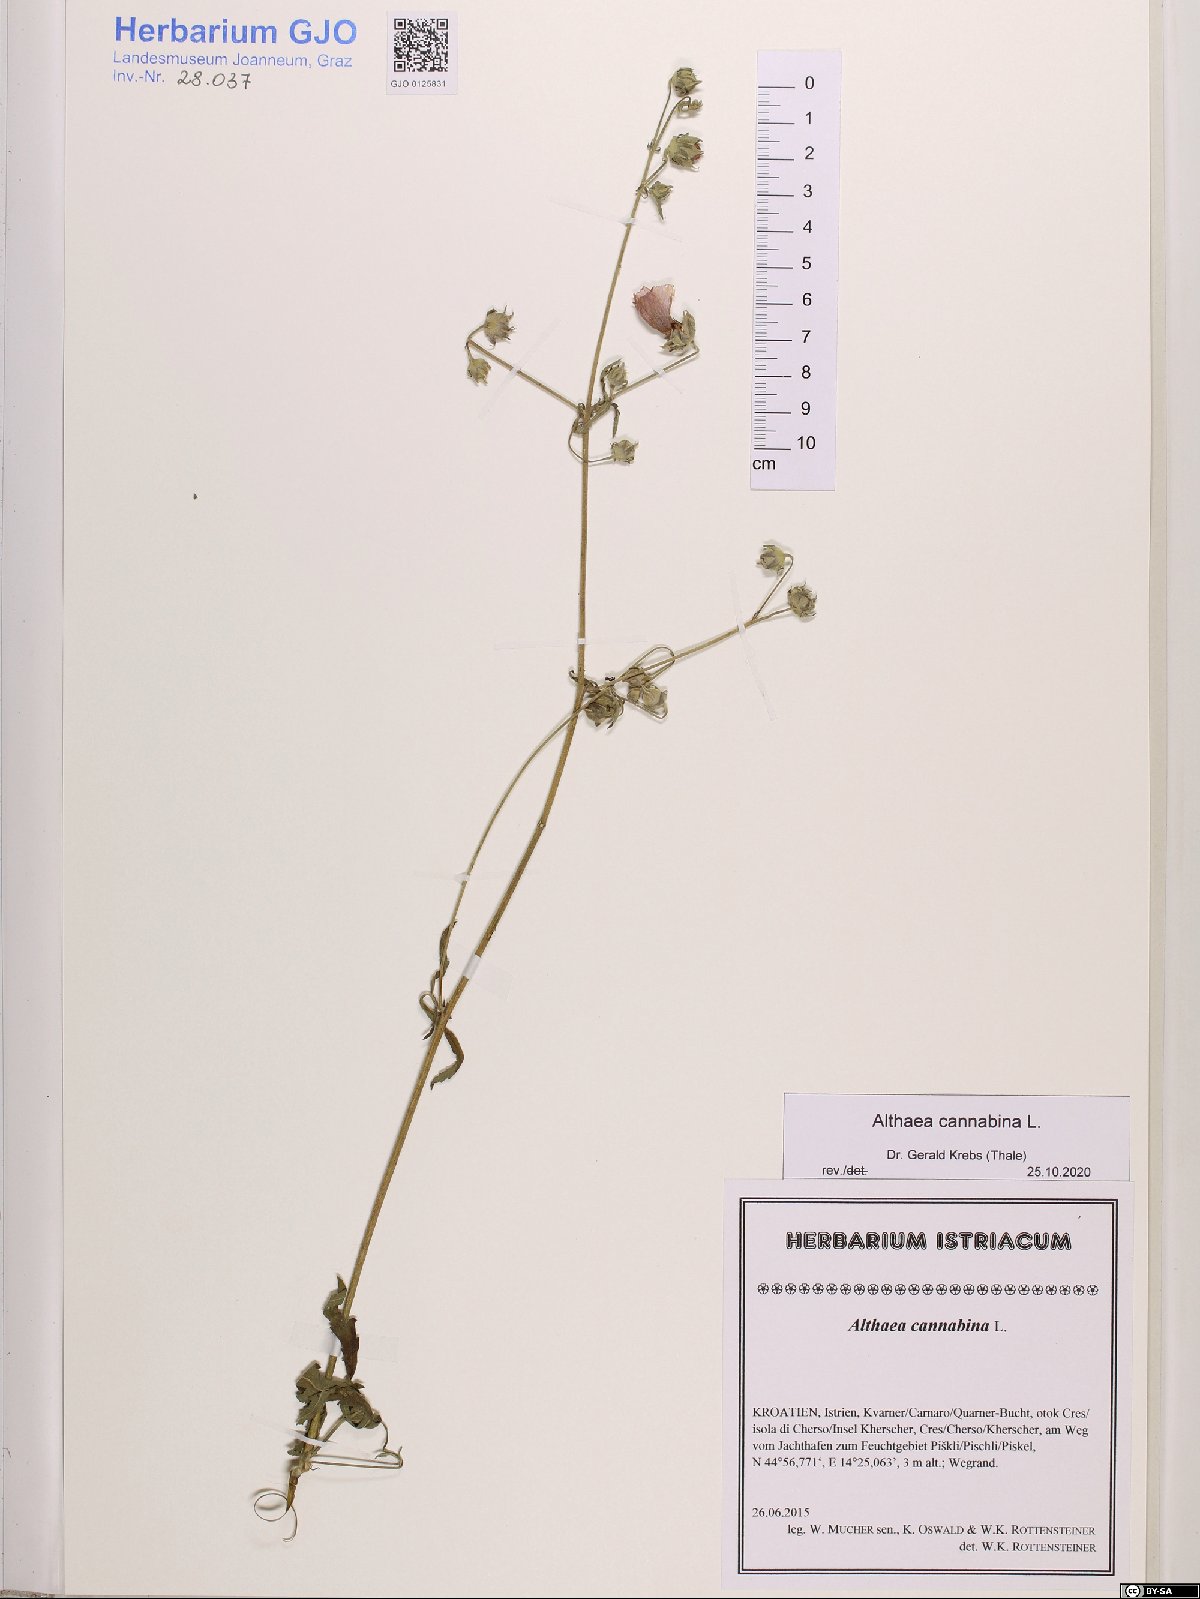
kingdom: Plantae
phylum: Tracheophyta
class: Magnoliopsida
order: Malvales
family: Malvaceae
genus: Althaea
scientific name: Althaea cannabina
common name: Palm-leaf marshmallow
